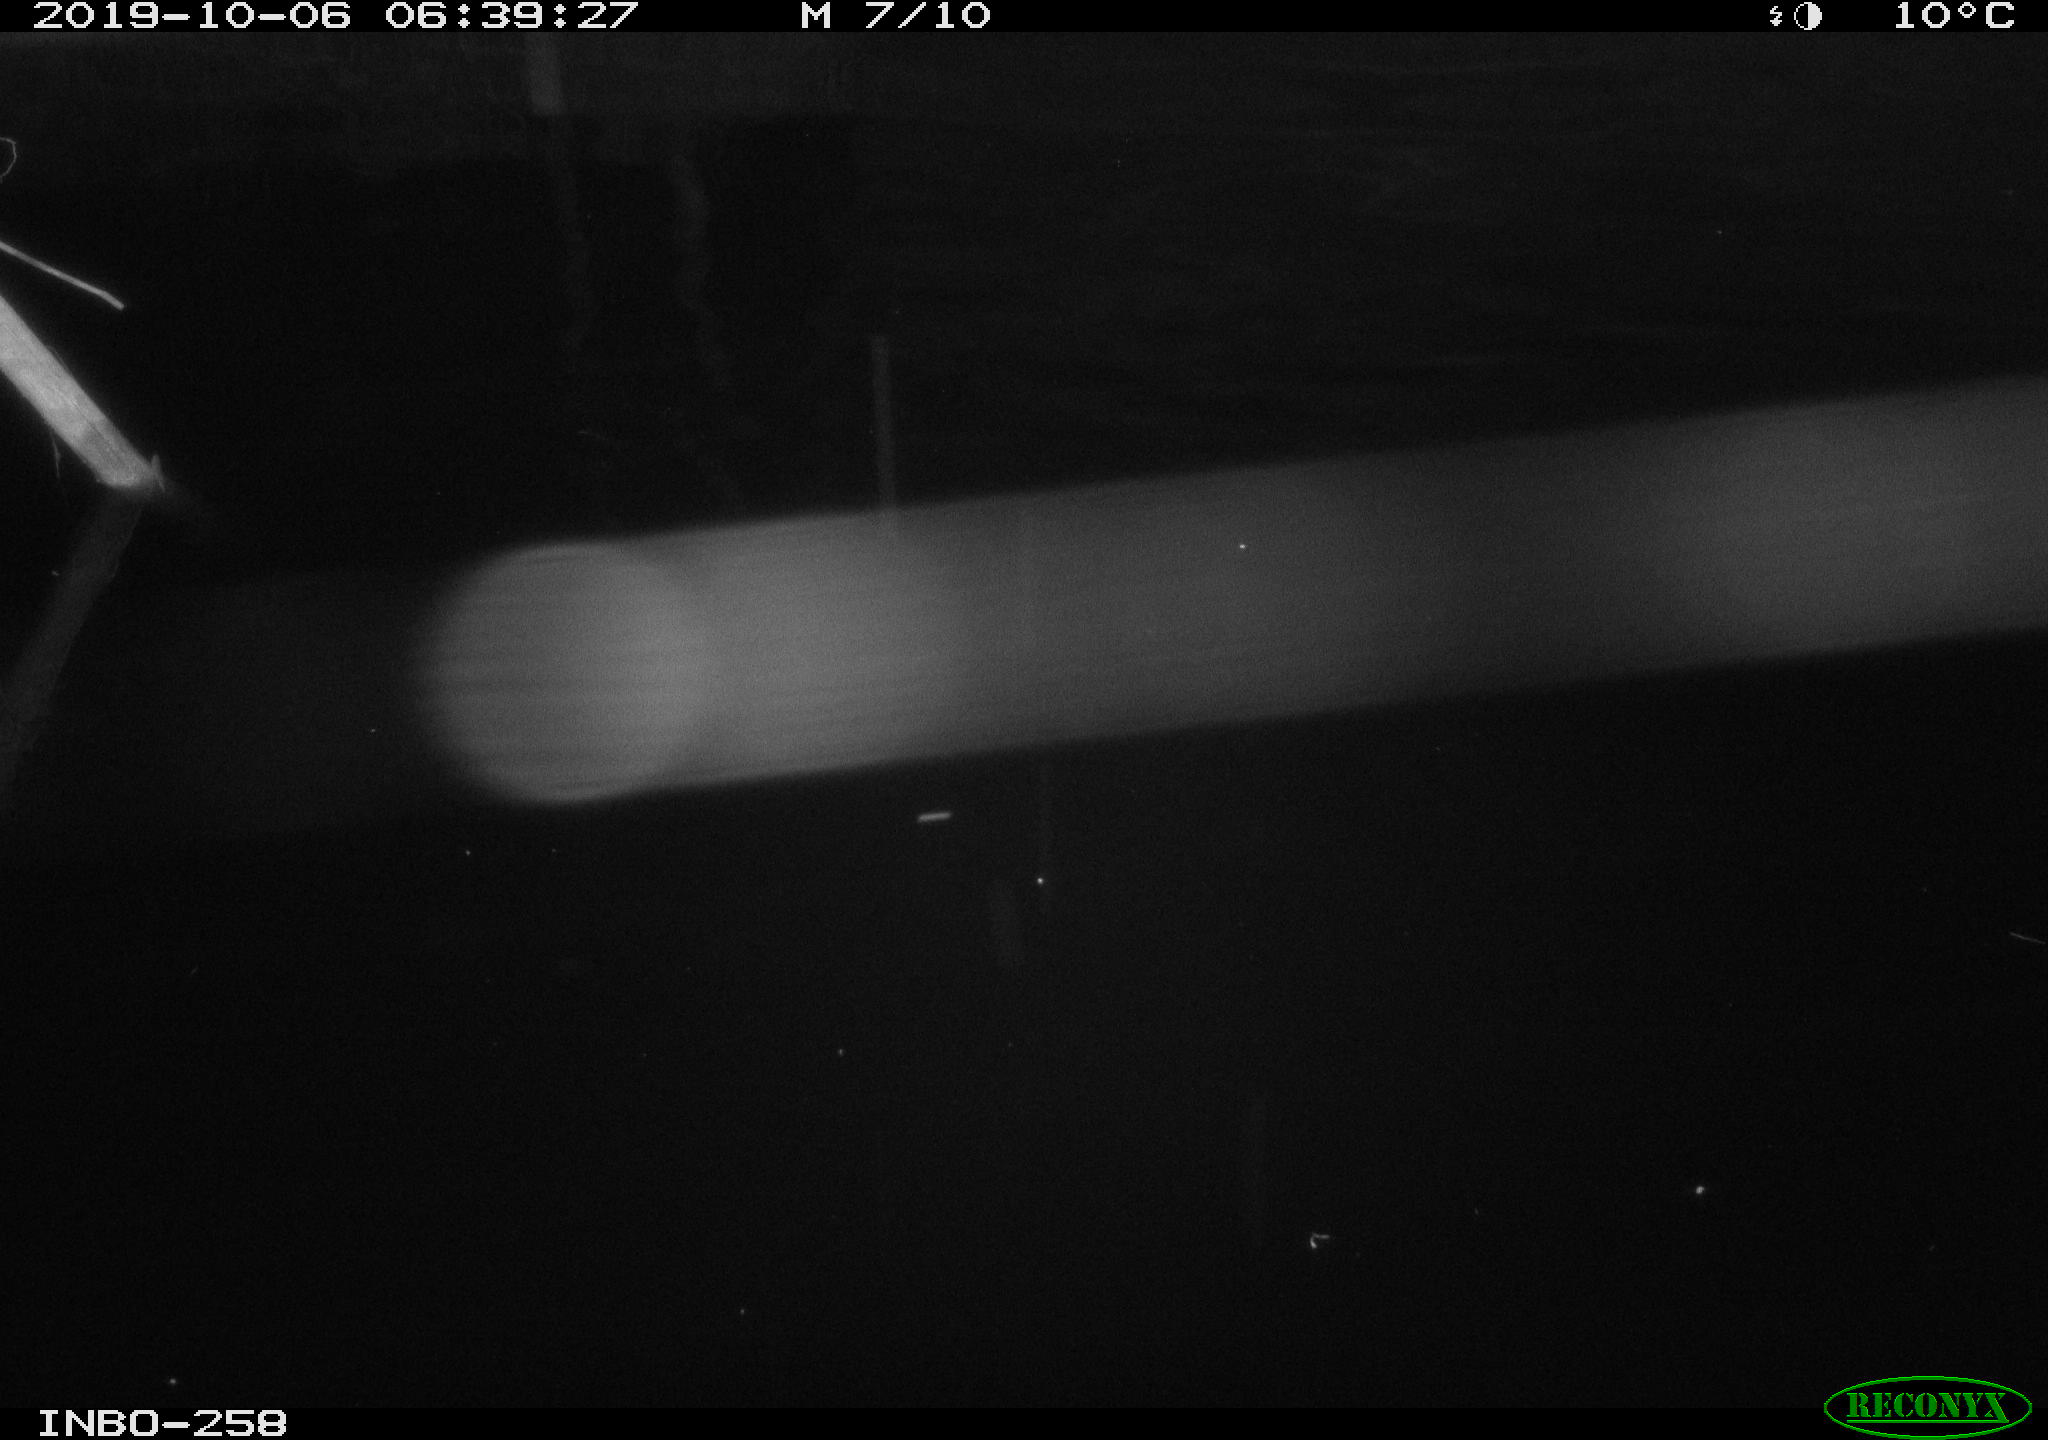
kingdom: Animalia
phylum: Chordata
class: Aves
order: Anseriformes
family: Anatidae
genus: Anas
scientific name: Anas platyrhynchos
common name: Mallard
